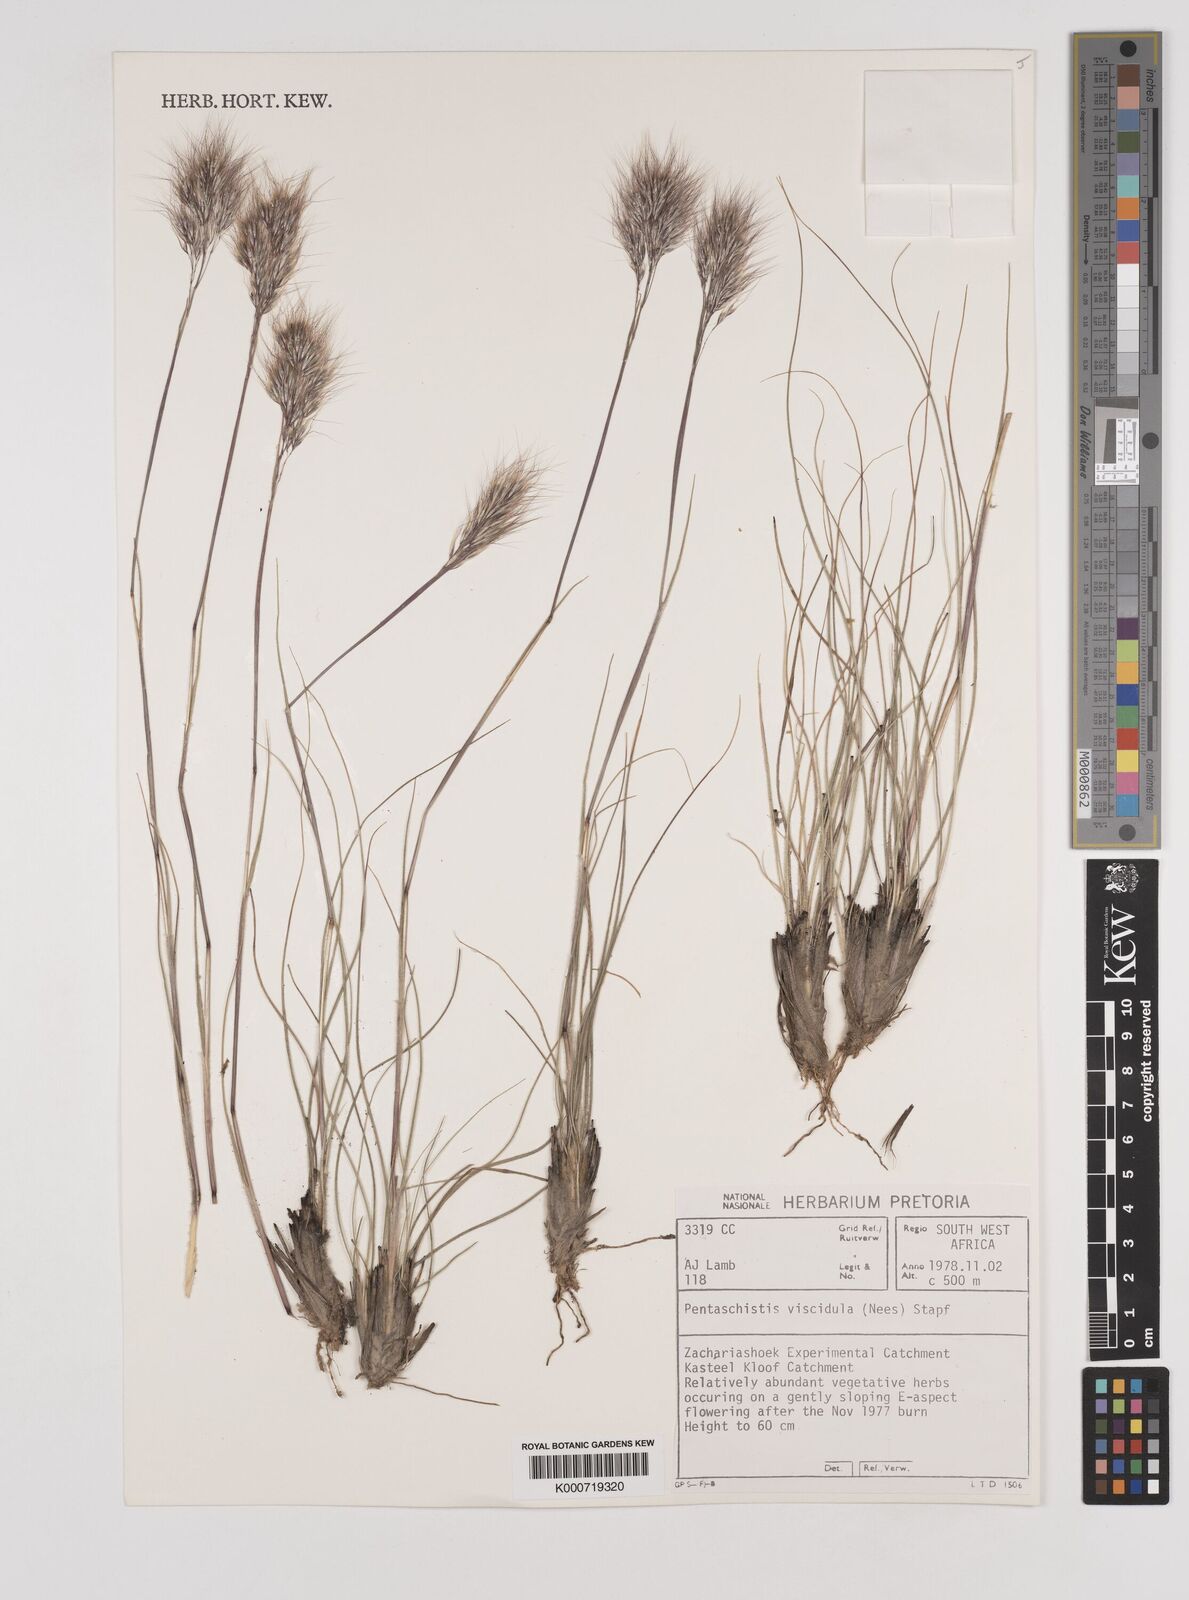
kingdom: Plantae
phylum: Tracheophyta
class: Liliopsida
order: Poales
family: Poaceae
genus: Pentameris
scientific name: Pentameris viscidula
